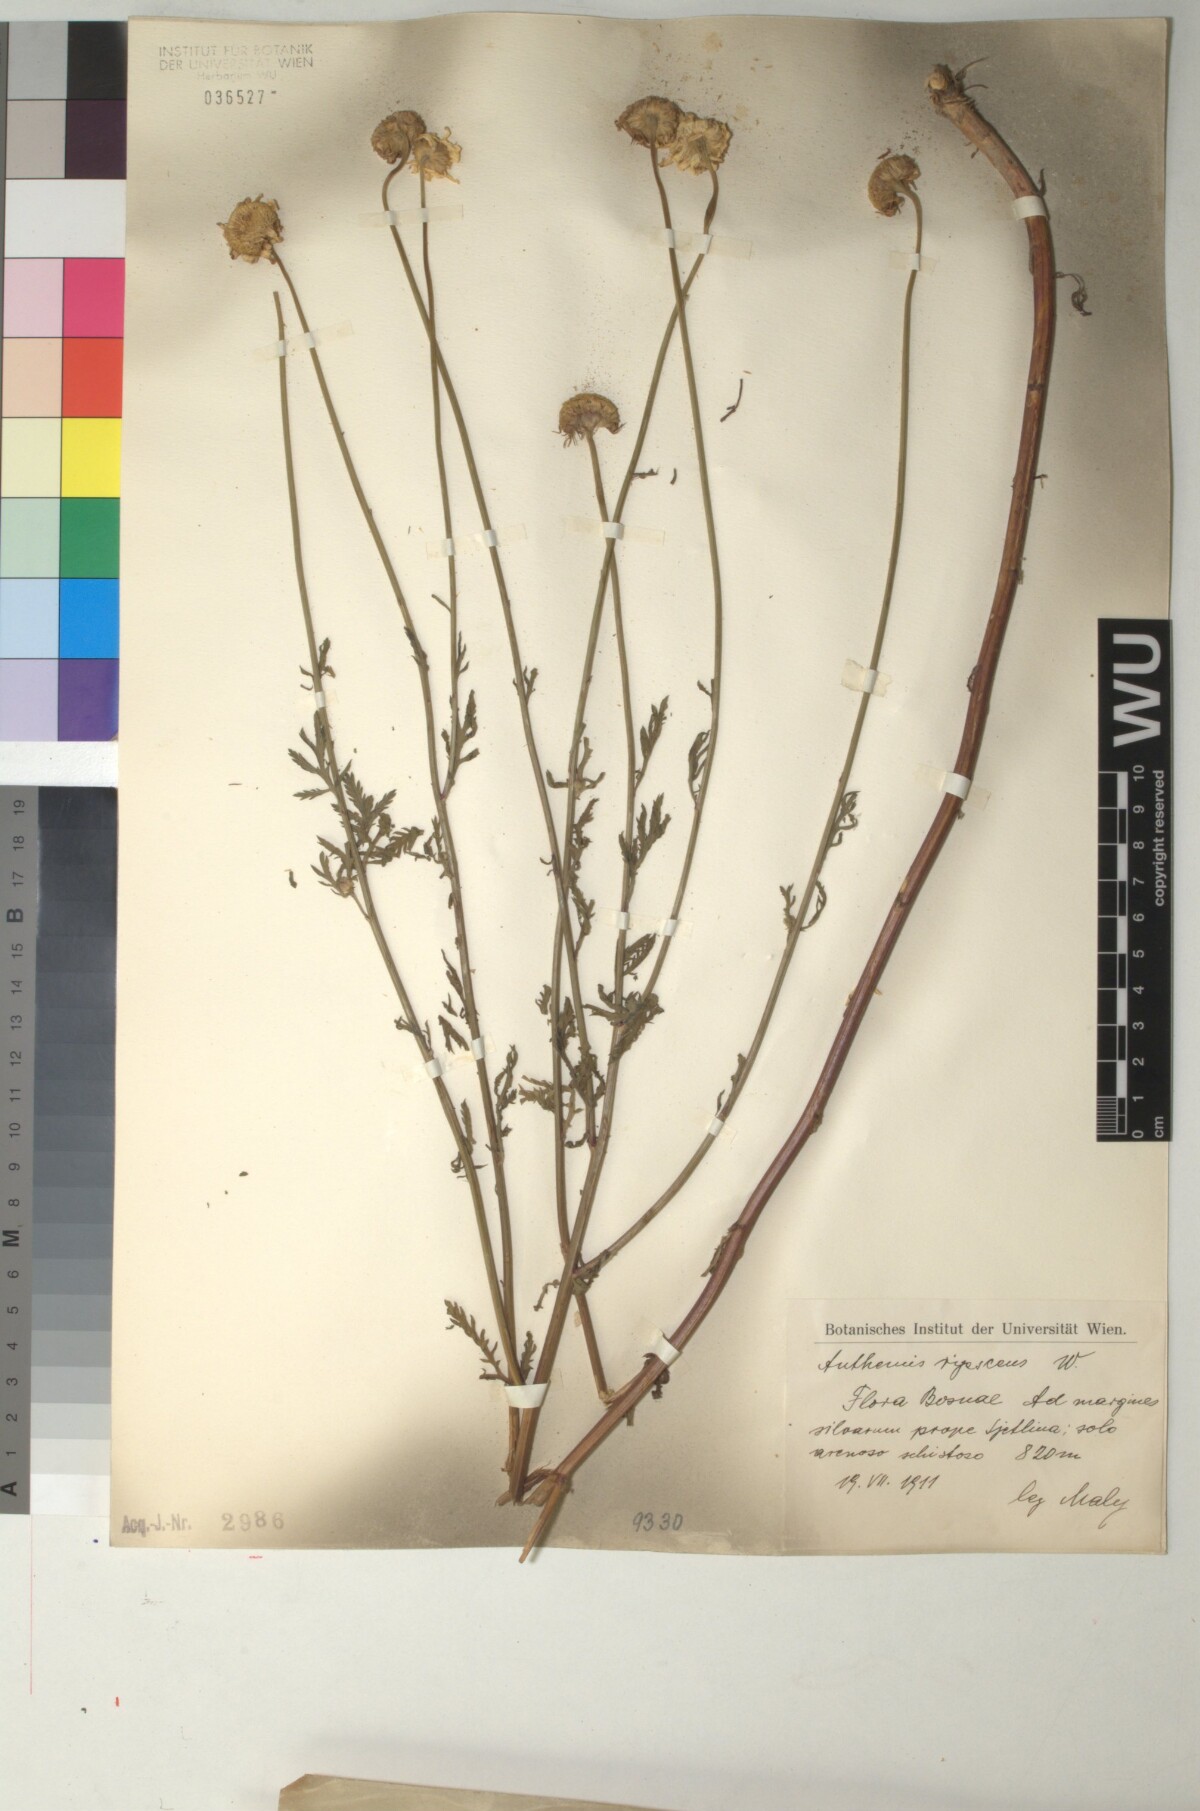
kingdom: Plantae
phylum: Tracheophyta
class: Magnoliopsida
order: Asterales
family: Asteraceae
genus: Cota
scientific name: Cota triumfetti
